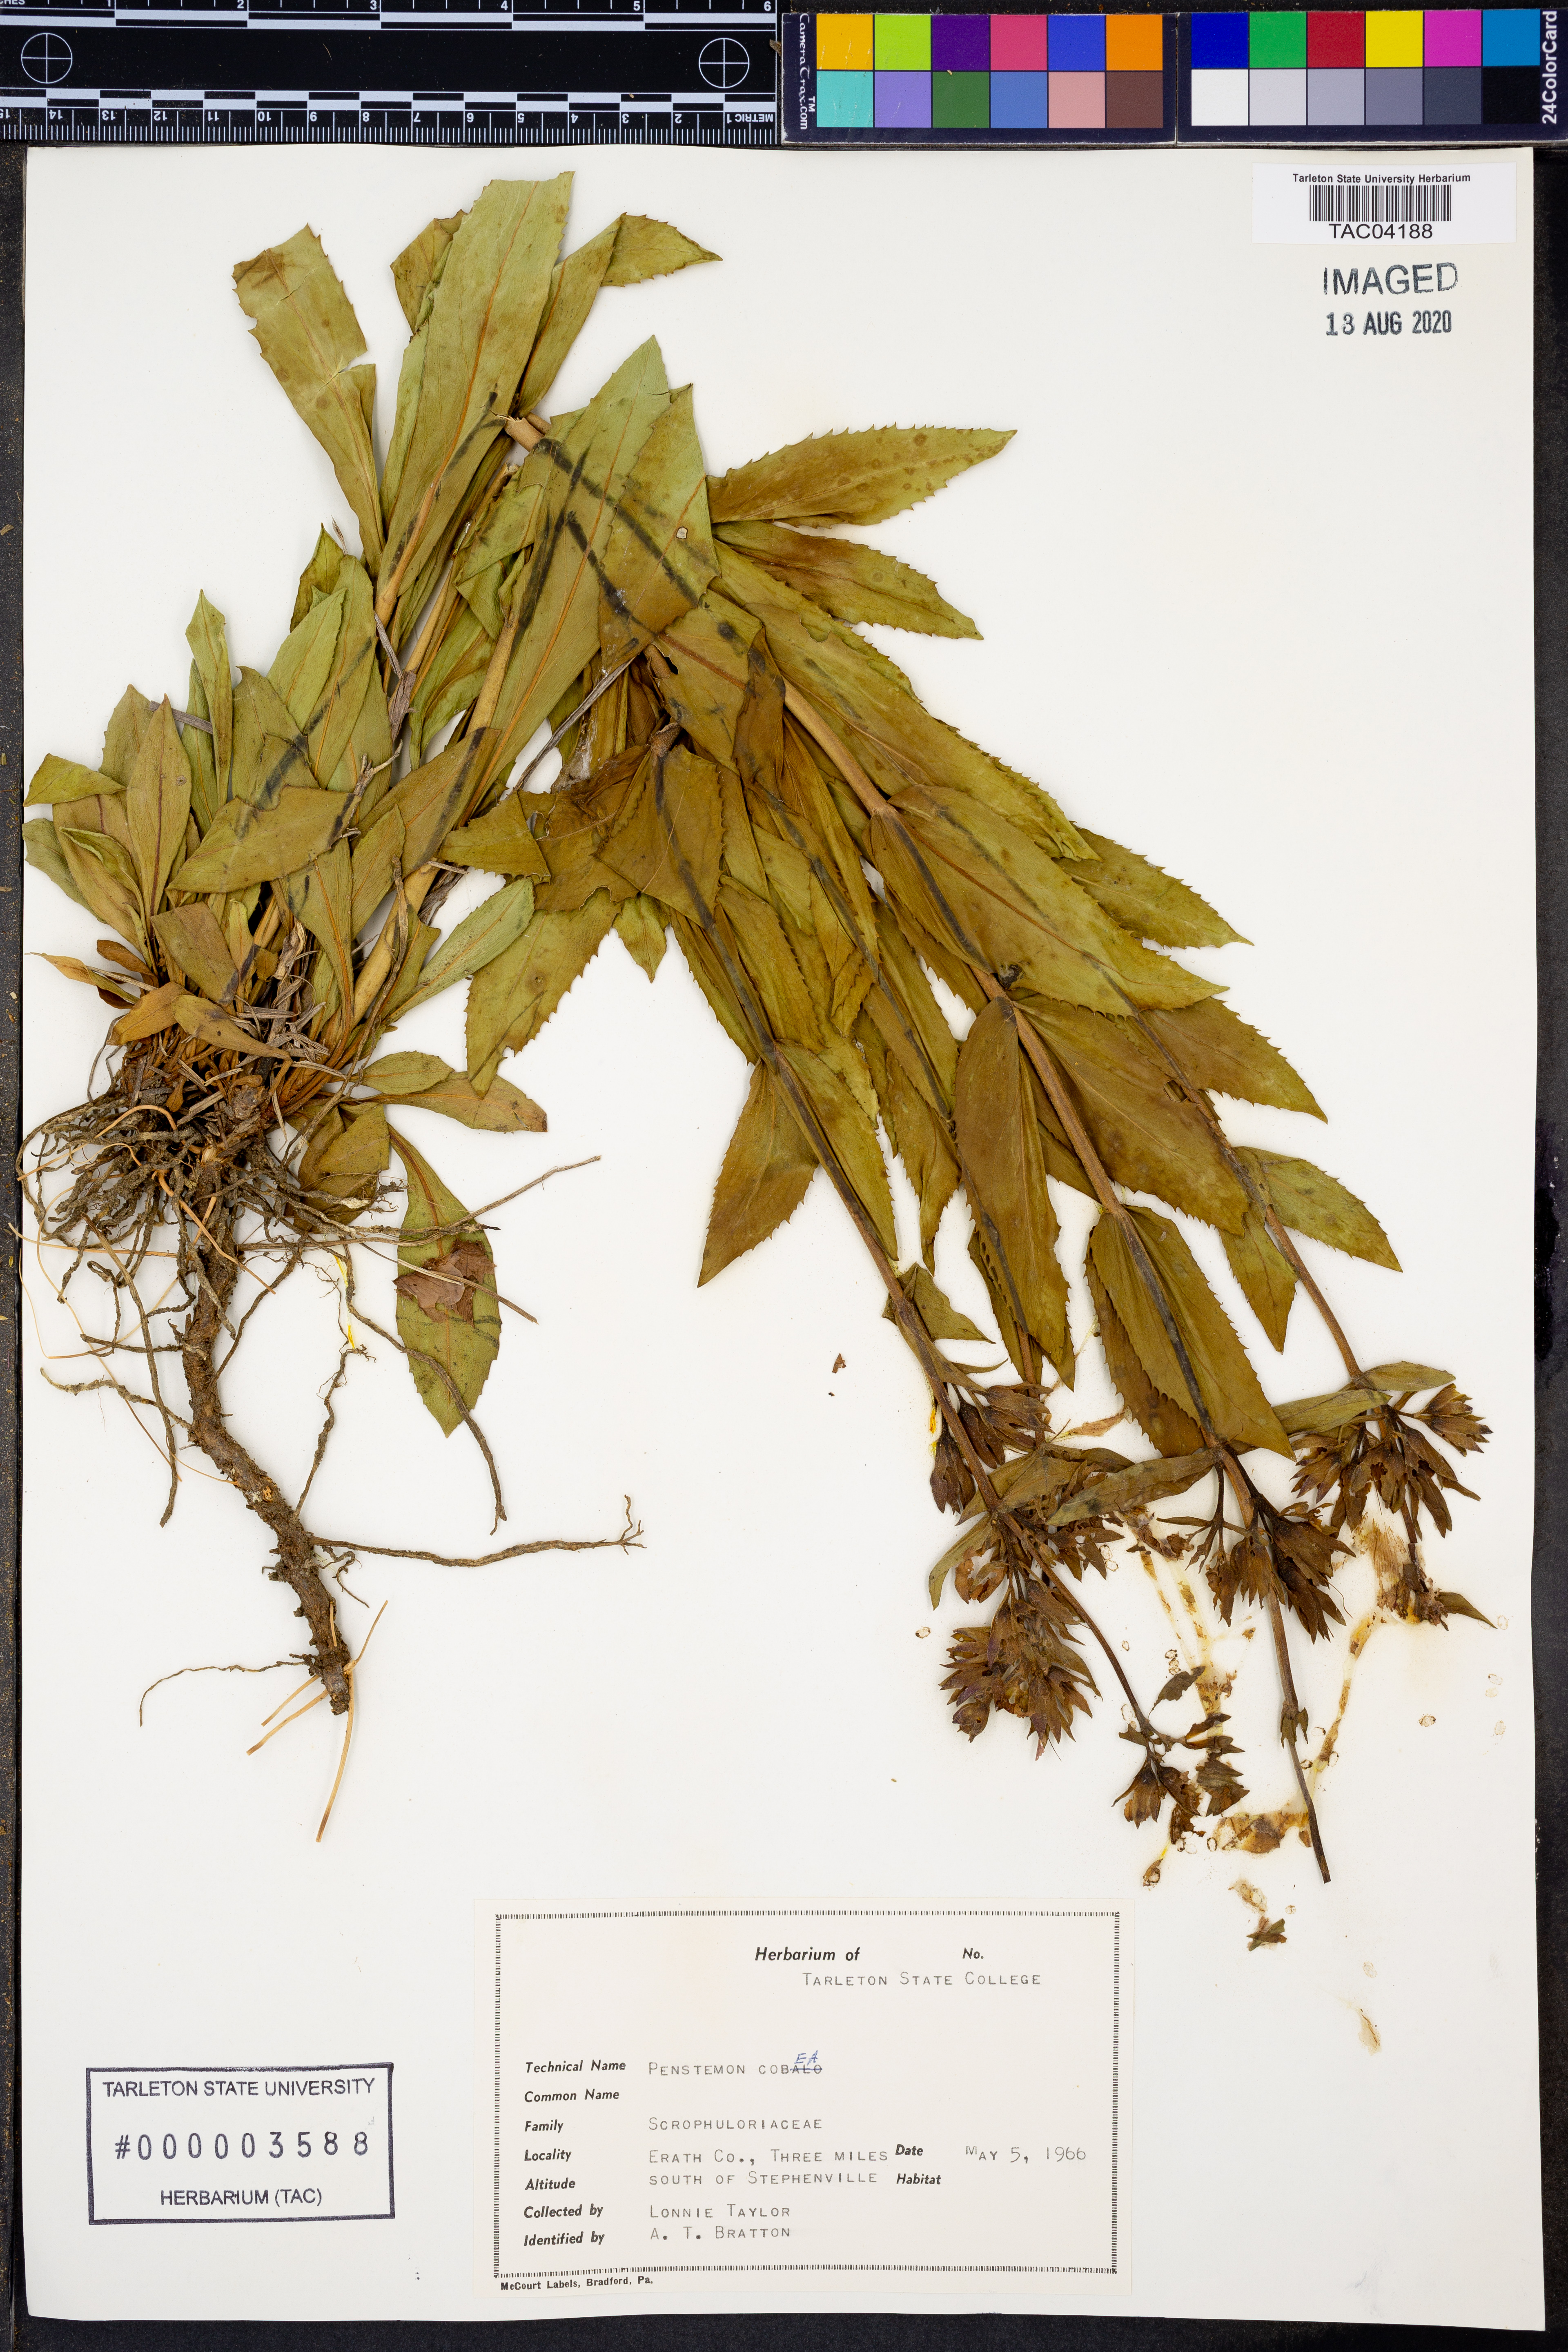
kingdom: Plantae
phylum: Tracheophyta
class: Magnoliopsida
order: Lamiales
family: Plantaginaceae
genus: Penstemon
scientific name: Penstemon cobaea
